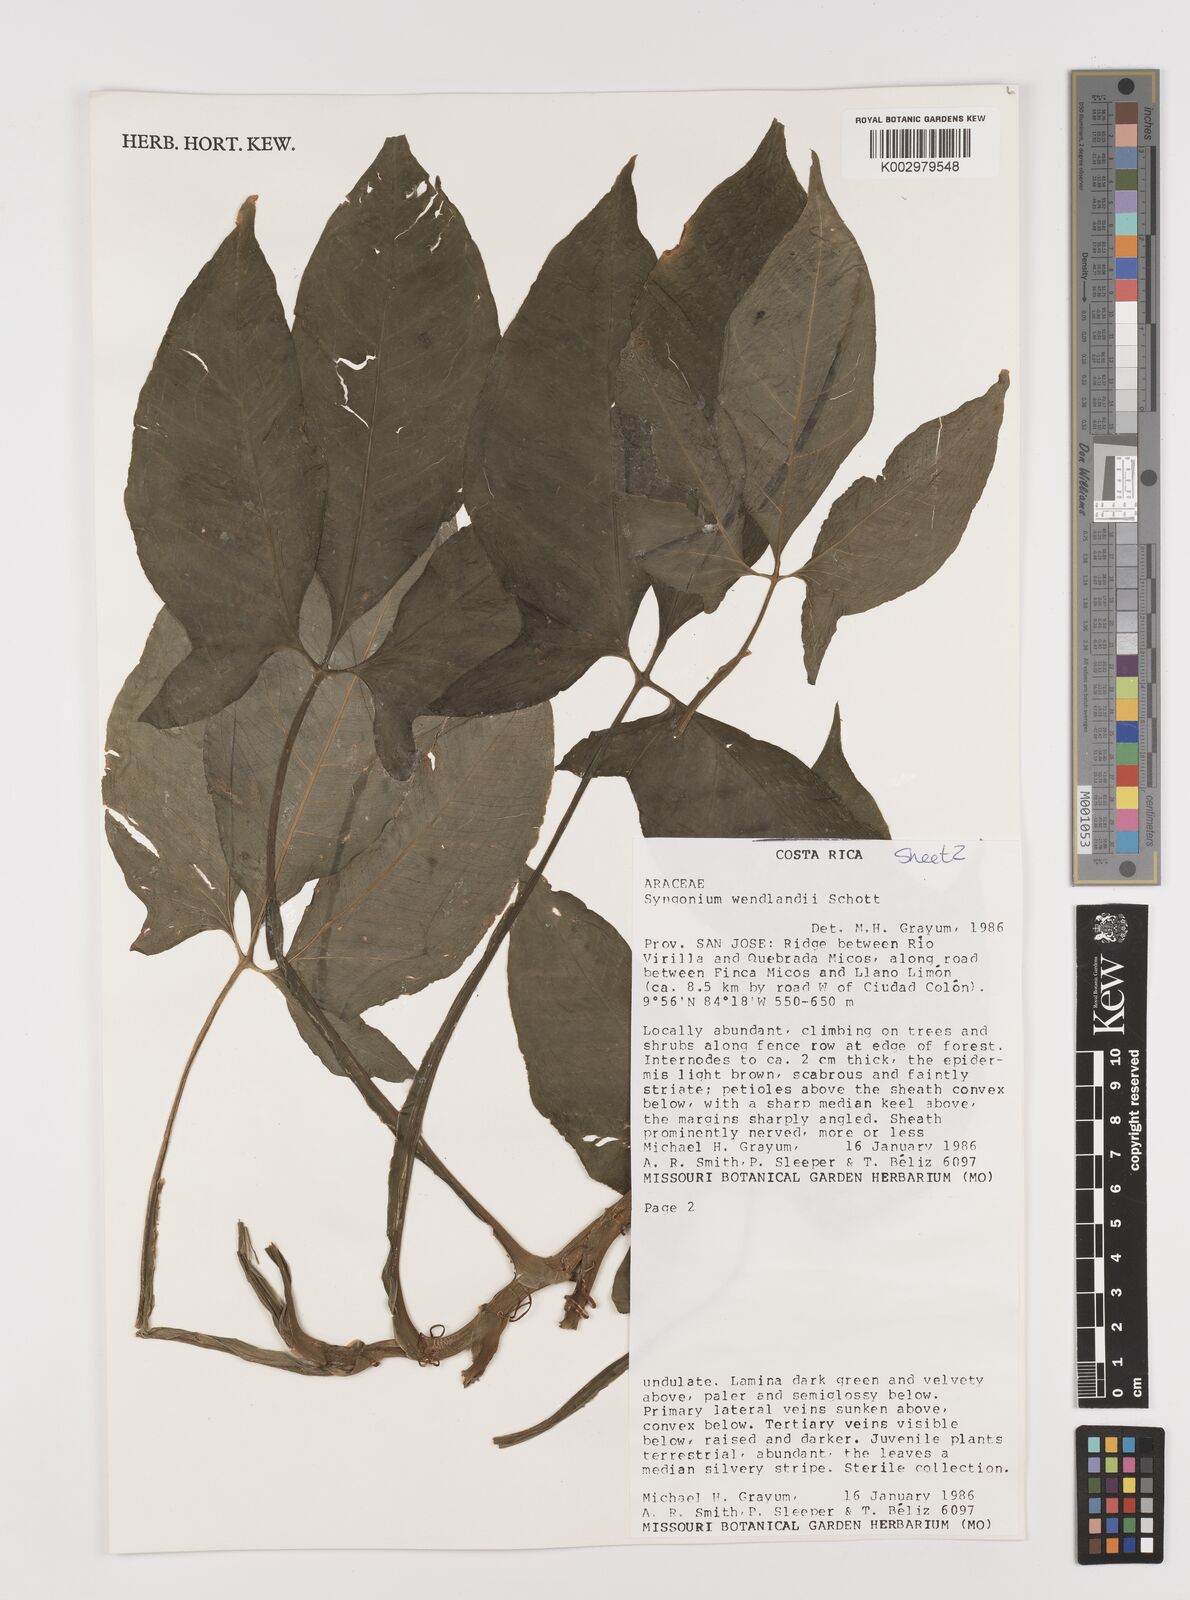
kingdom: Plantae
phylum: Tracheophyta
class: Liliopsida
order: Alismatales
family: Araceae
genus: Syngonium
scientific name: Syngonium wendlandii
